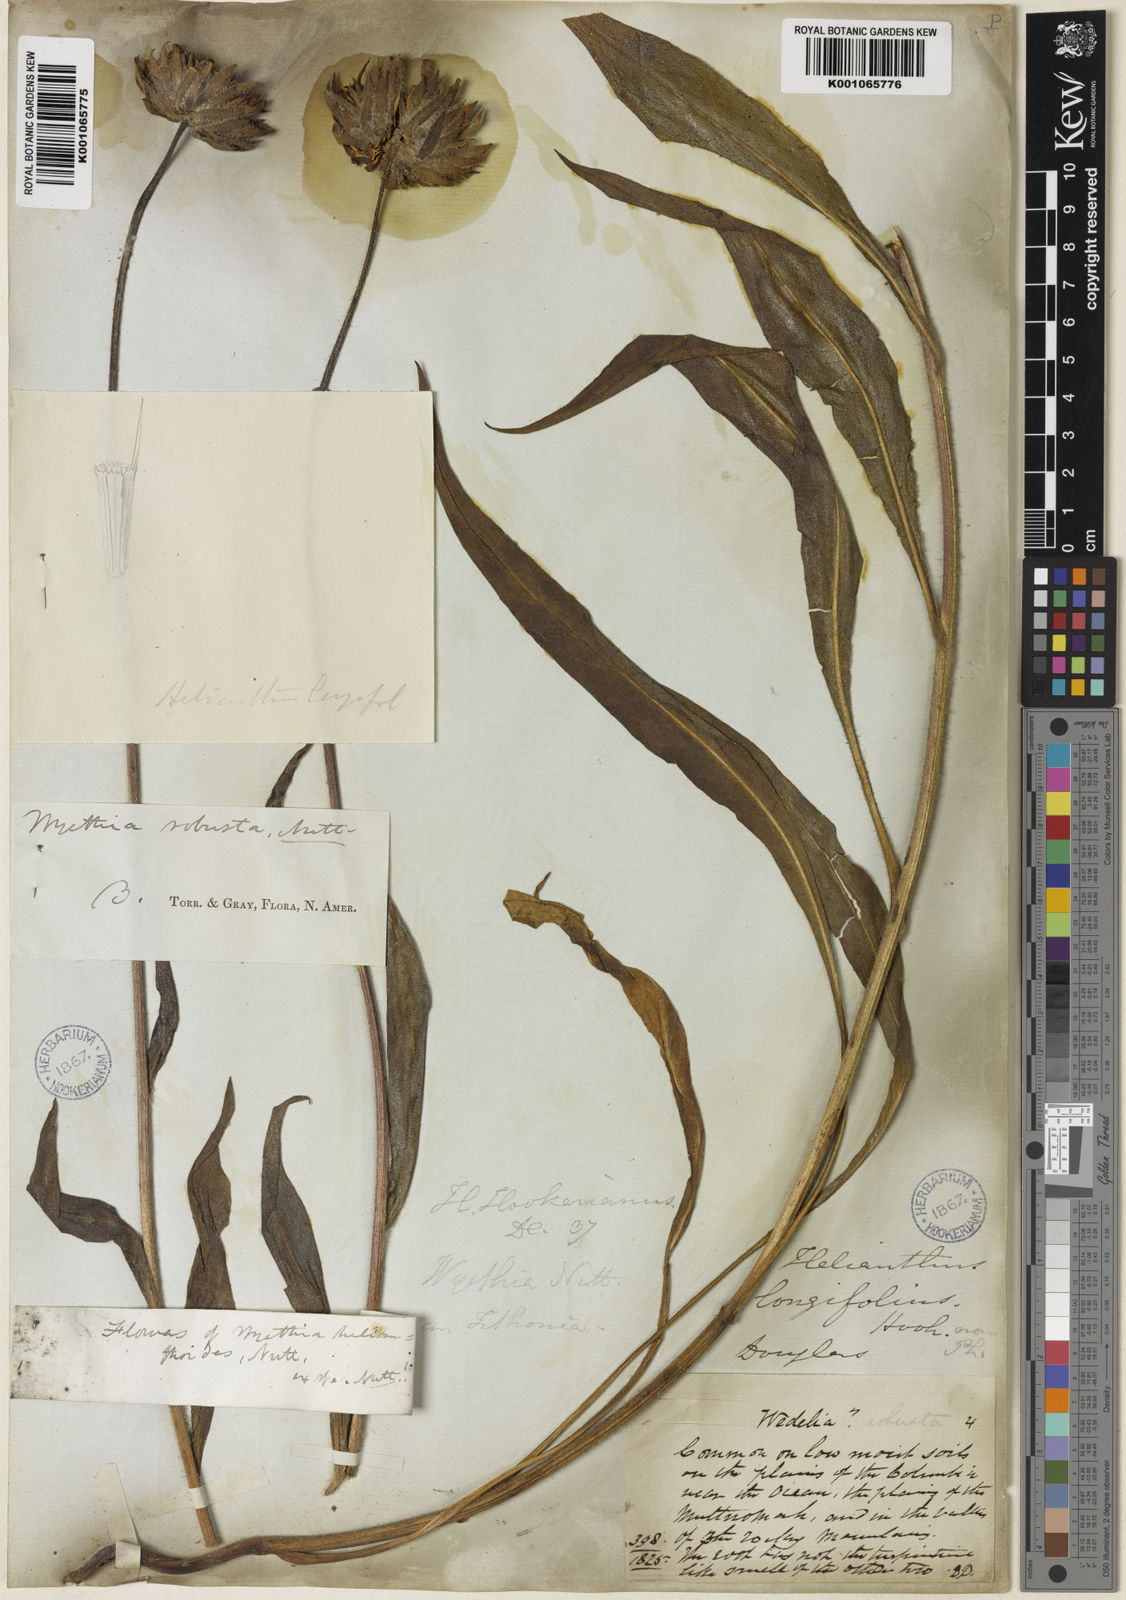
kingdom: Plantae
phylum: Tracheophyta
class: Magnoliopsida
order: Asterales
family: Asteraceae
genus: Wyethia
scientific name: Wyethia angustifolia
